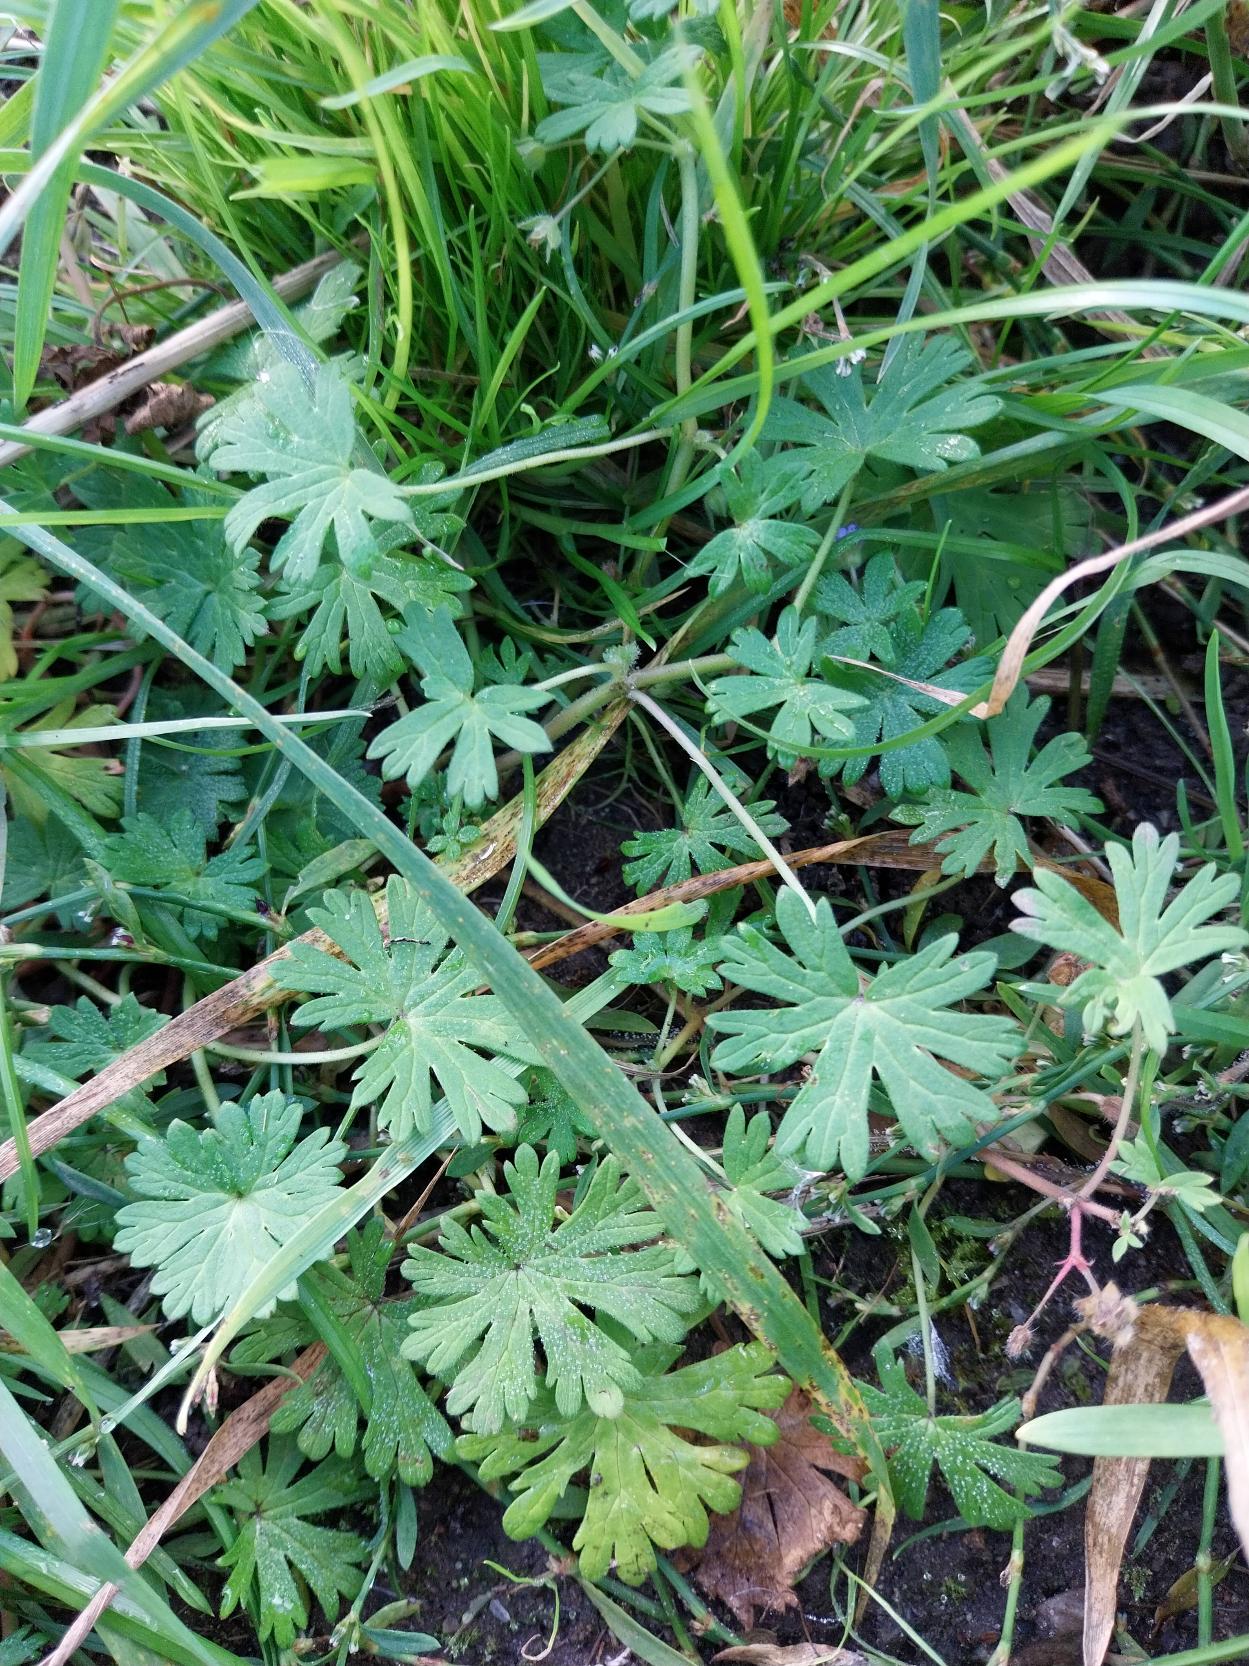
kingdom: Plantae
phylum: Tracheophyta
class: Magnoliopsida
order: Geraniales
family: Geraniaceae
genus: Geranium
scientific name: Geranium pusillum
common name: Liden storkenæb
